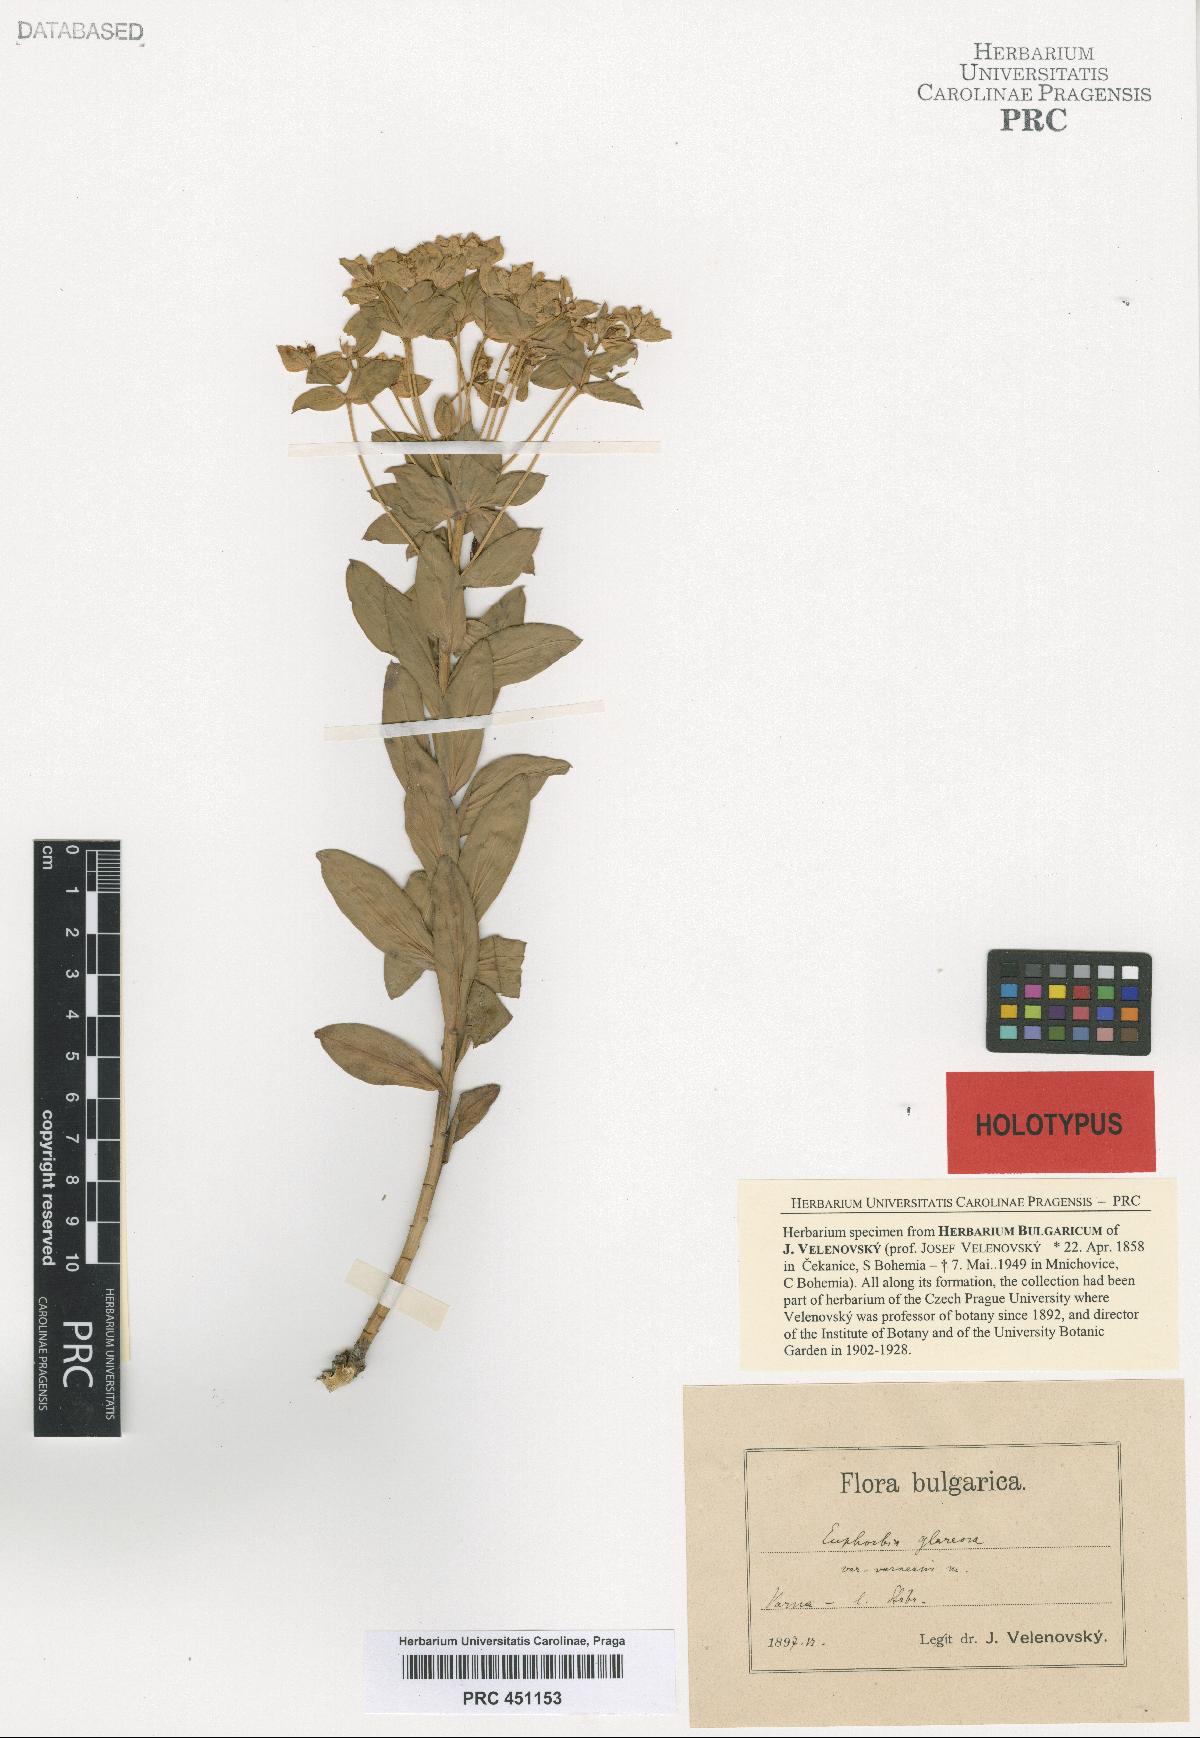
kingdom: Plantae
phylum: Tracheophyta
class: Magnoliopsida
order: Malpighiales
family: Euphorbiaceae
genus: Euphorbia
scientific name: Euphorbia glareosa
